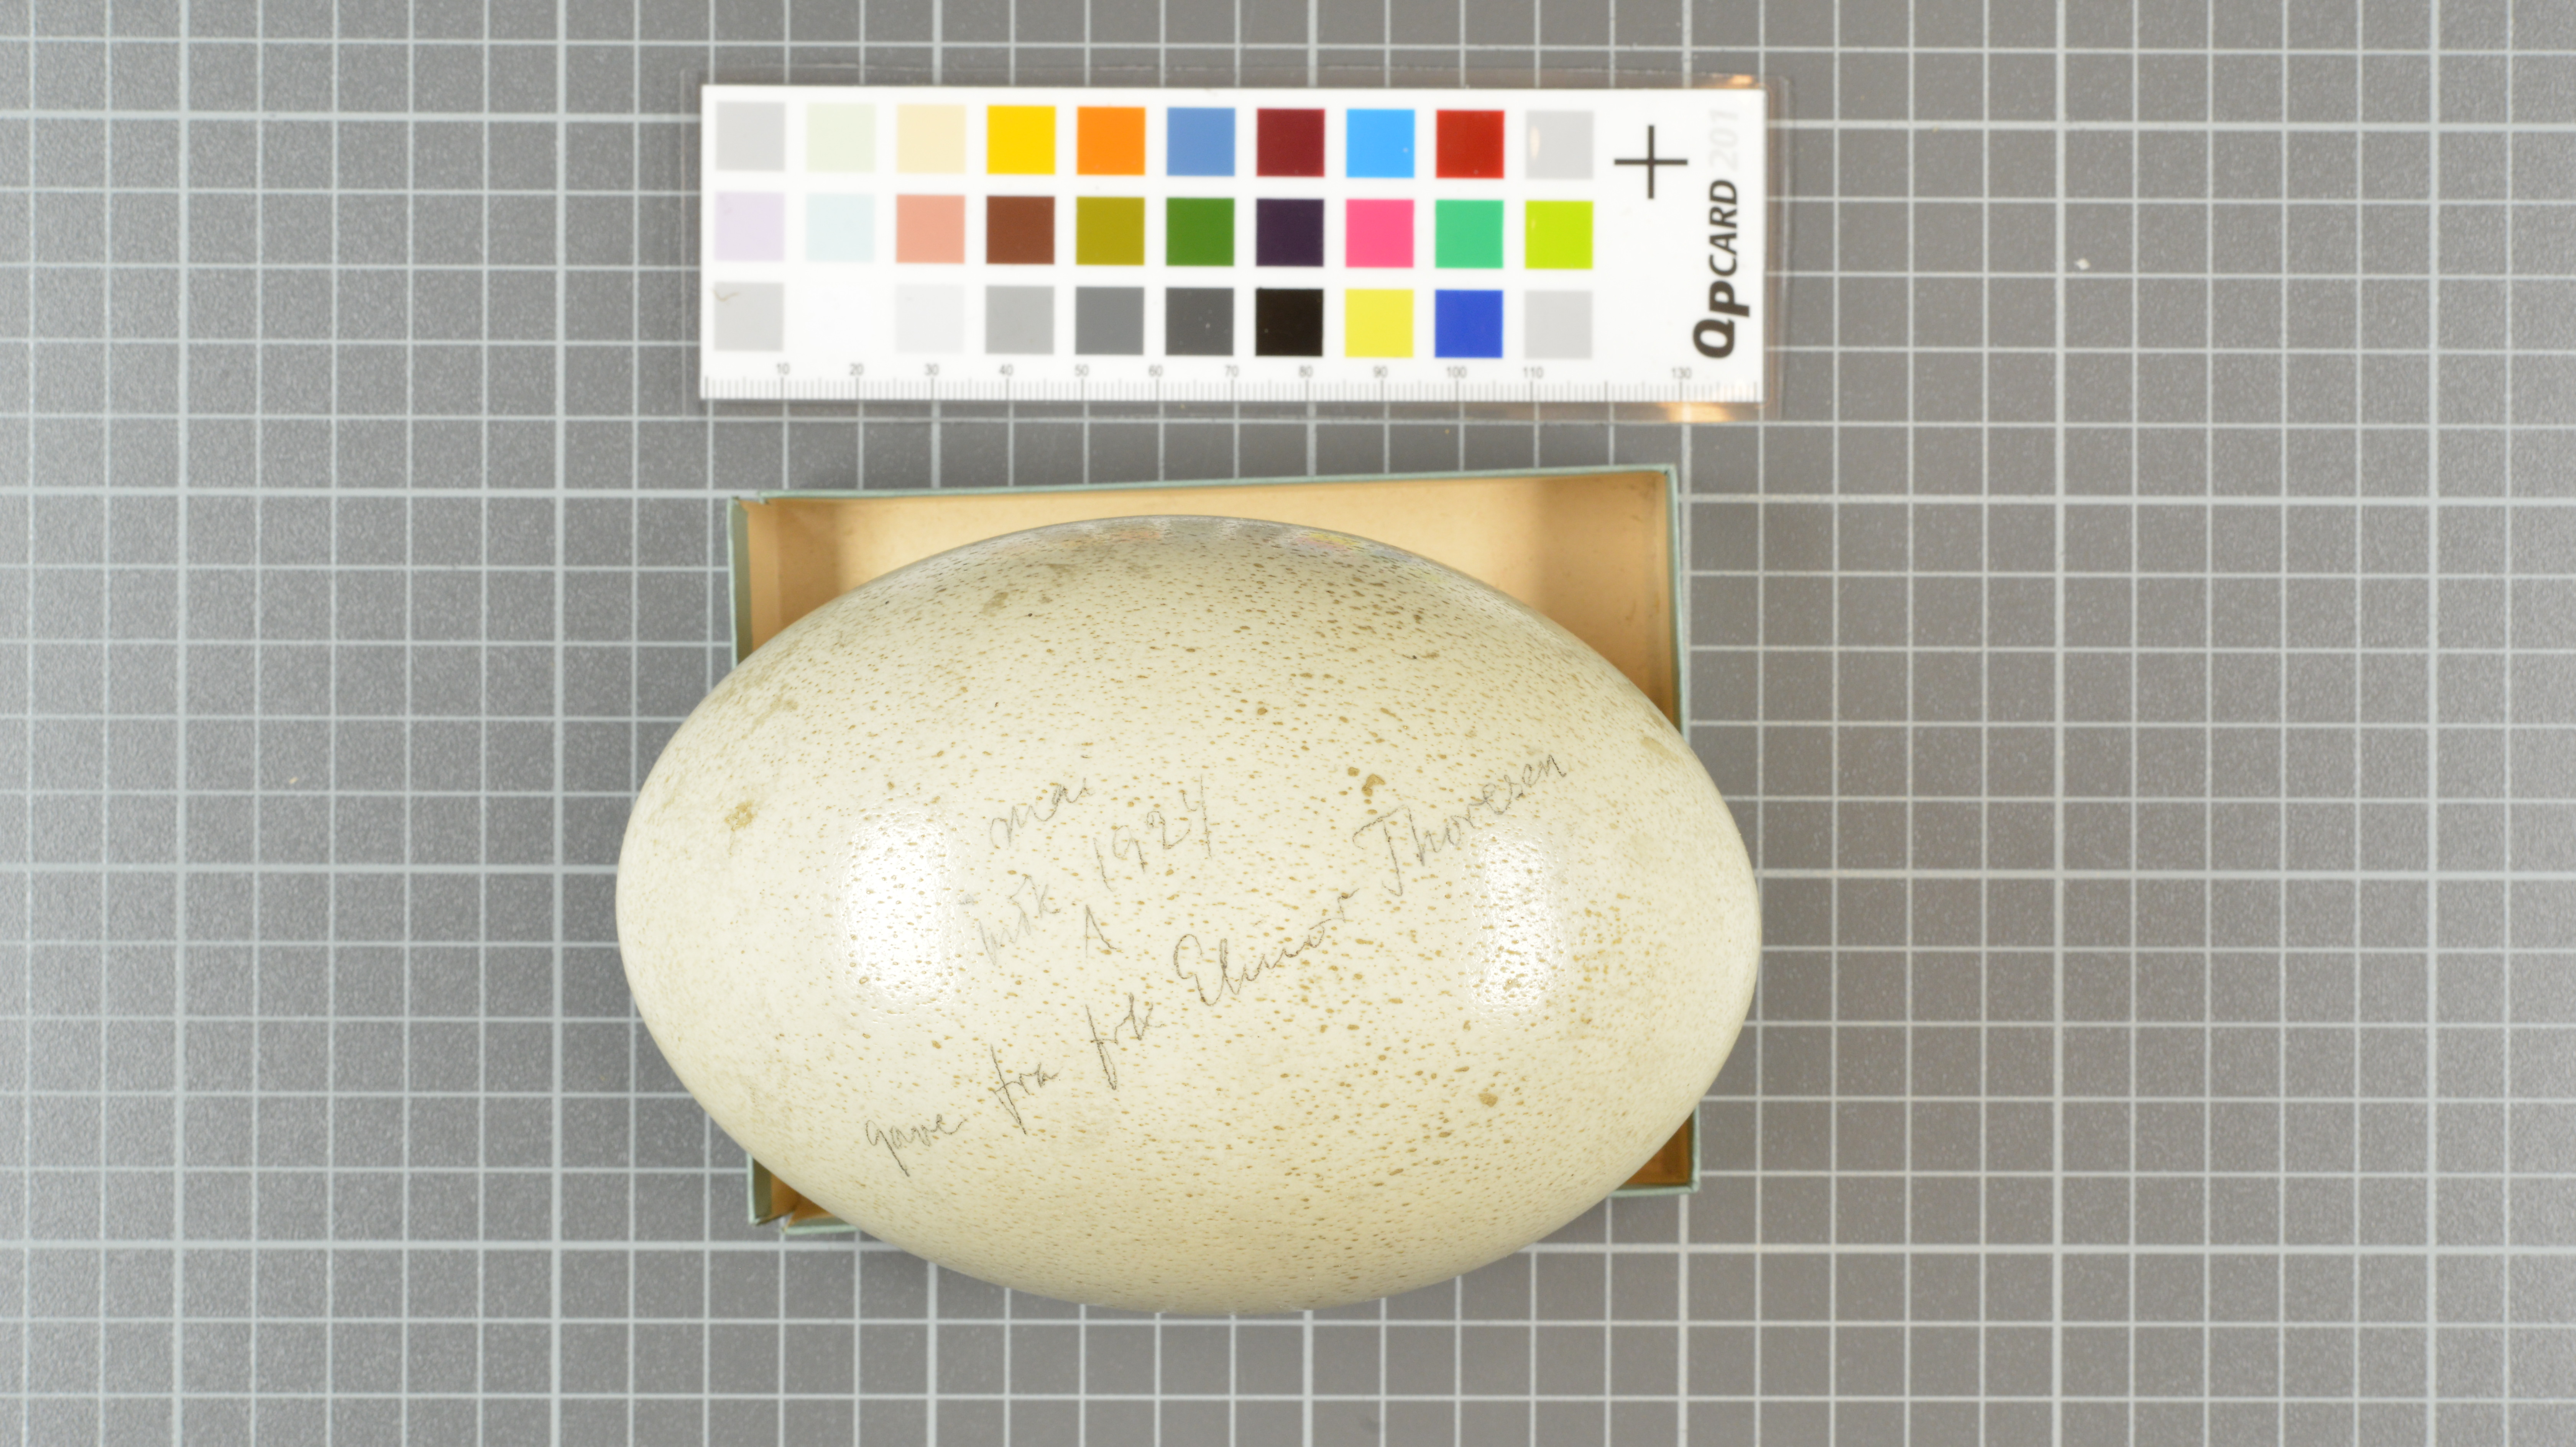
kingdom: Animalia
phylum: Chordata
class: Aves
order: Struthioniformes
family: Struthionidae
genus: Struthio
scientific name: Struthio camelus
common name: Common ostrich
